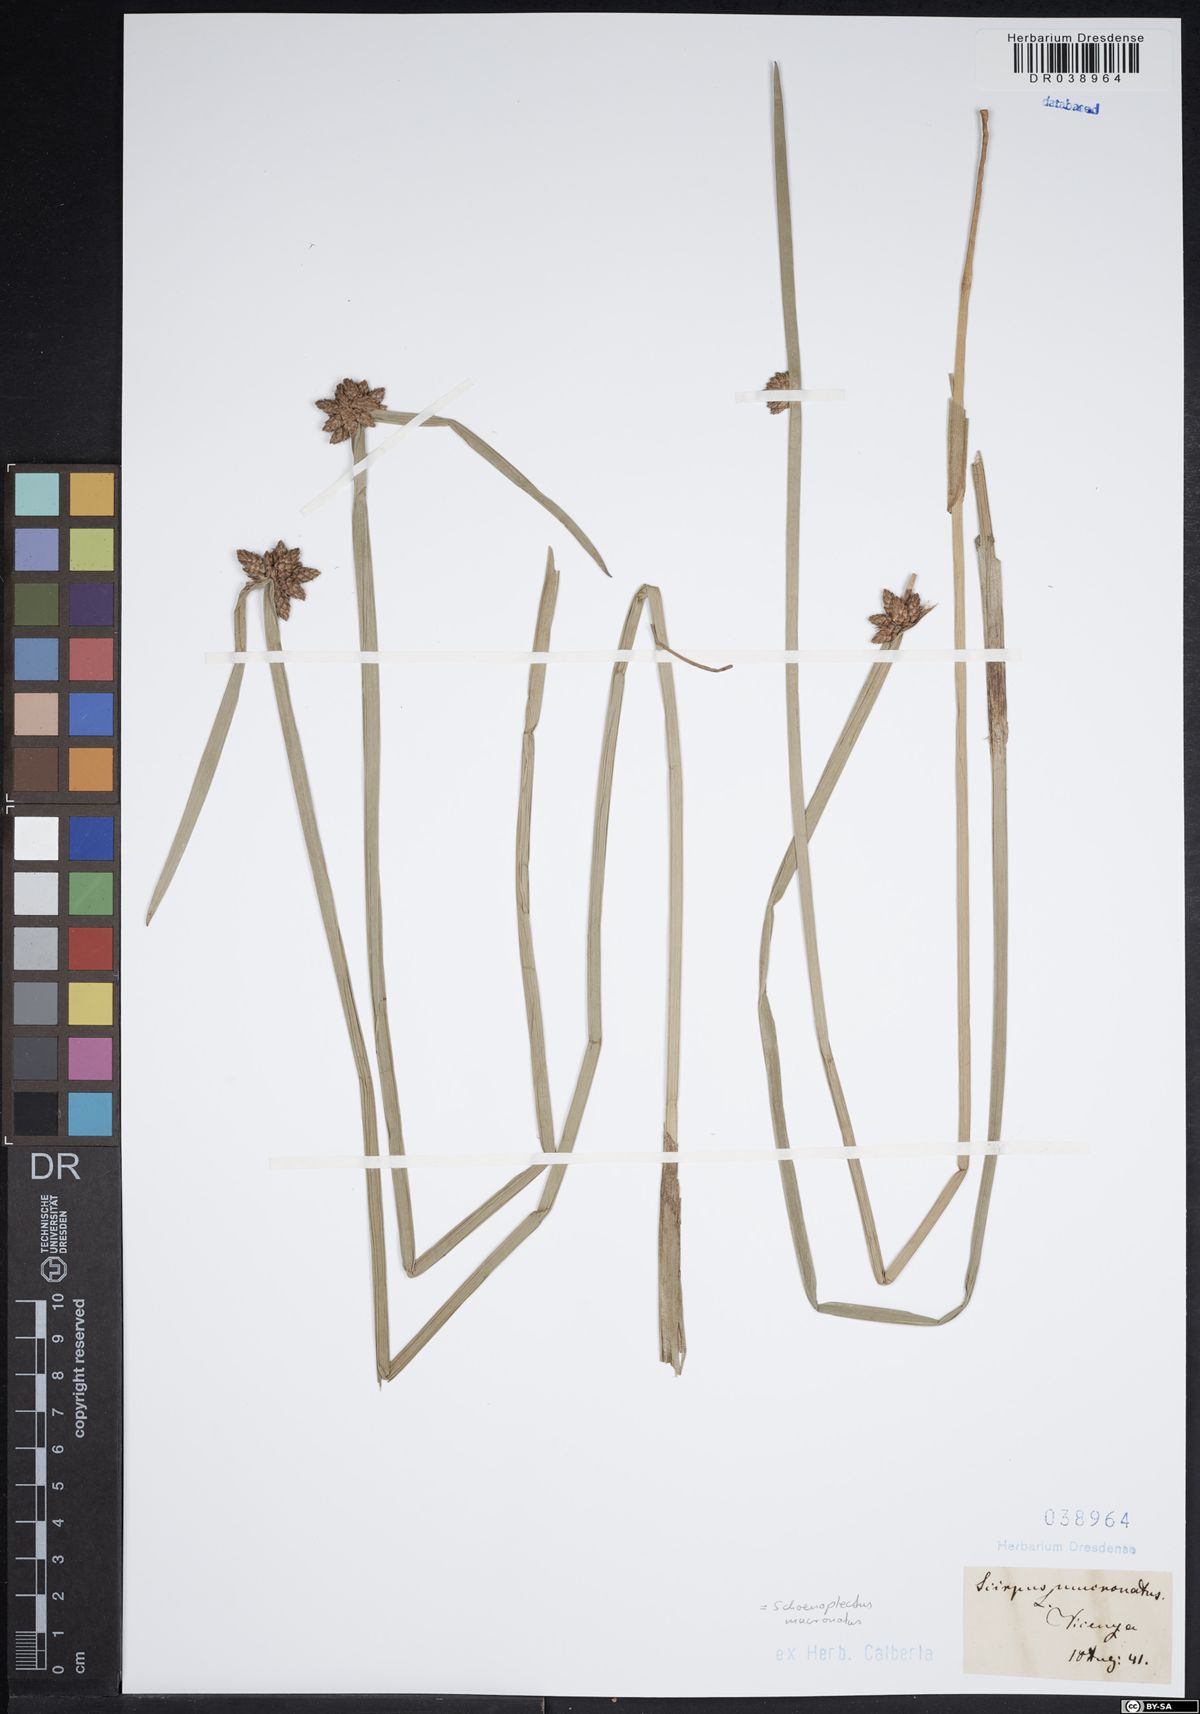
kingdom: Plantae
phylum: Tracheophyta
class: Liliopsida
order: Poales
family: Cyperaceae
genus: Schoenoplectiella
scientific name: Schoenoplectiella mucronata
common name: Bog bulrush
